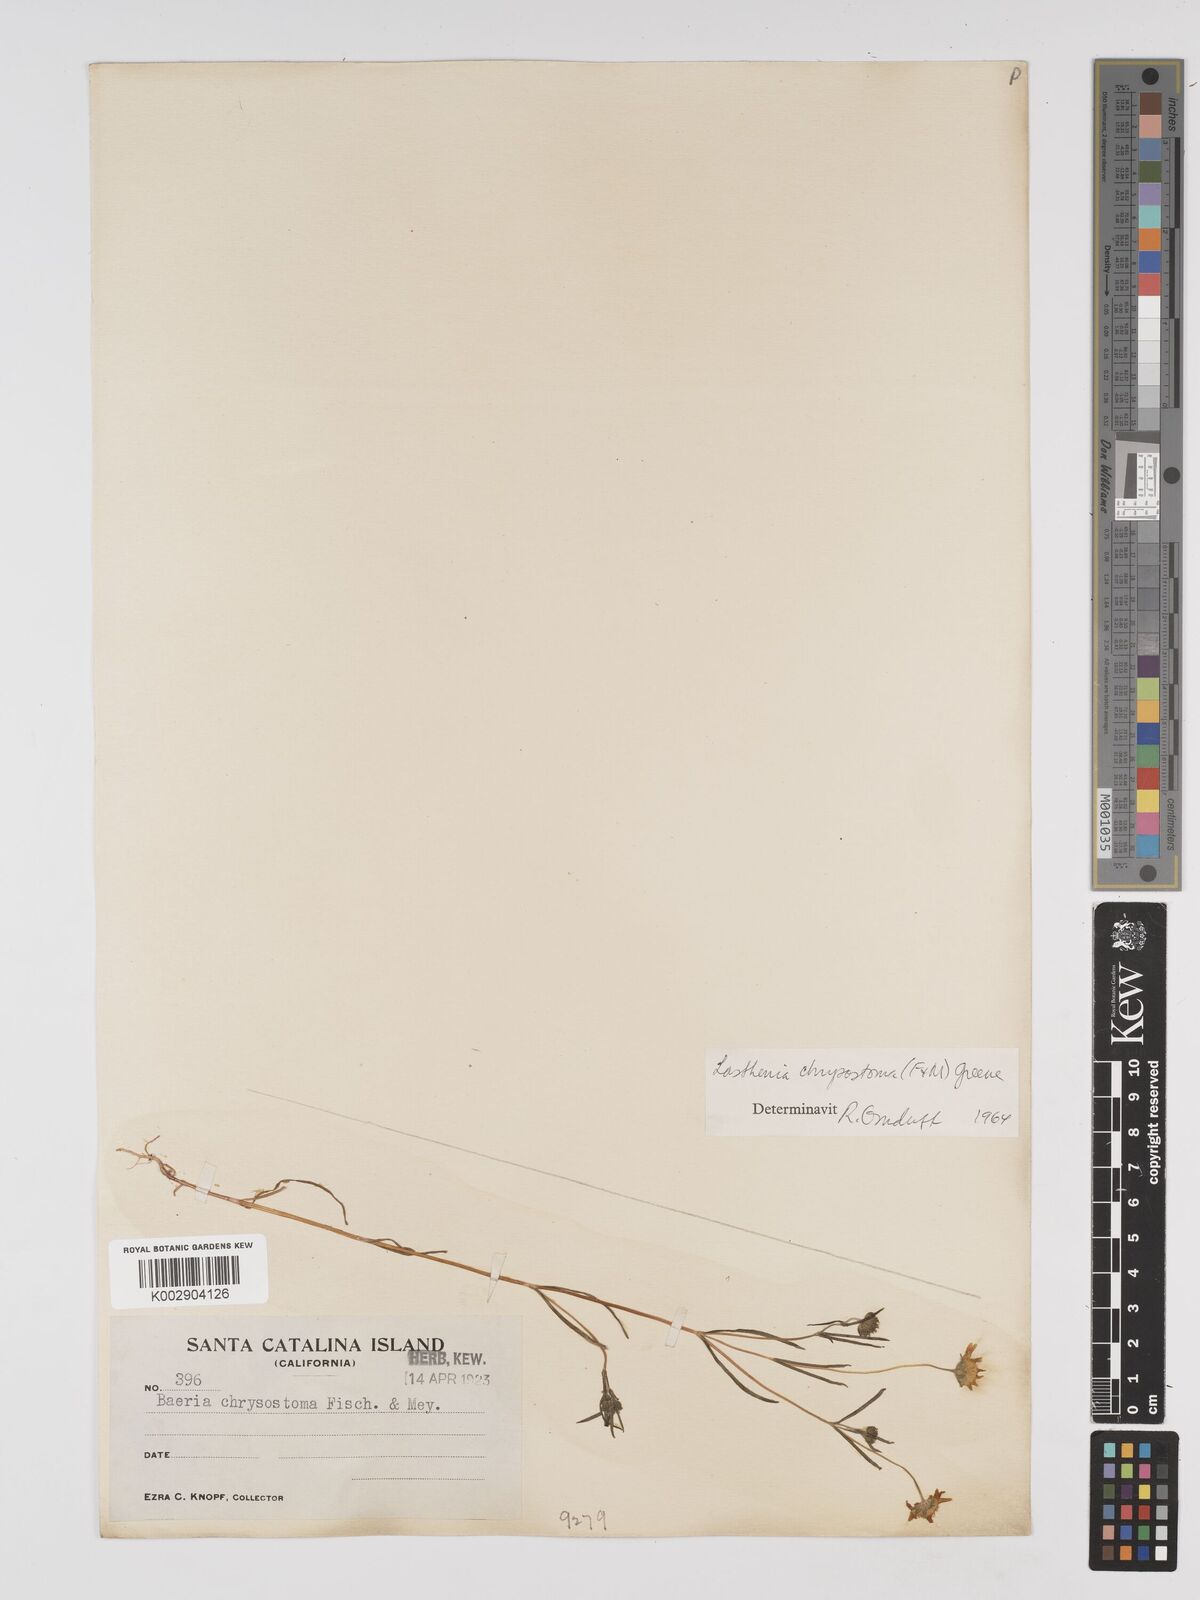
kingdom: Plantae
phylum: Tracheophyta
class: Magnoliopsida
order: Asterales
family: Asteraceae
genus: Lasthenia
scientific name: Lasthenia californica
